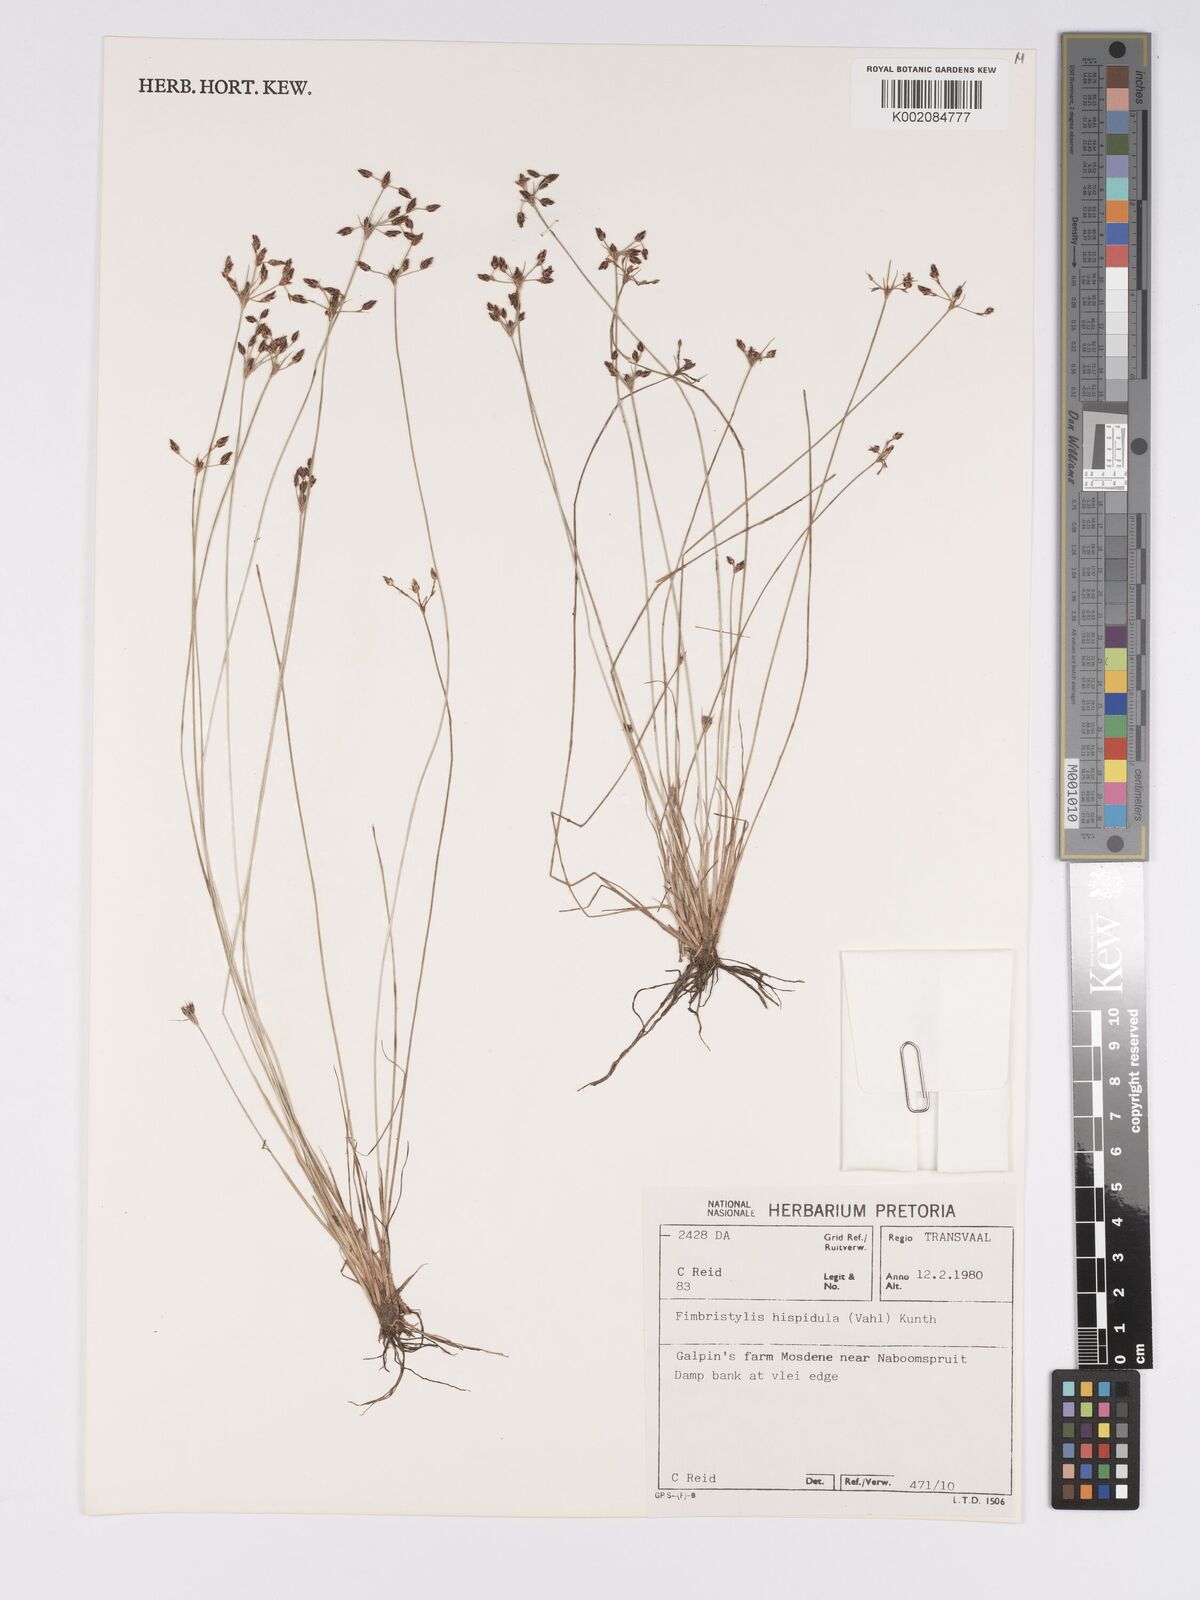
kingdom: Plantae
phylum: Tracheophyta
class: Liliopsida
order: Poales
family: Cyperaceae
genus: Bulbostylis
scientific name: Bulbostylis hispidula
